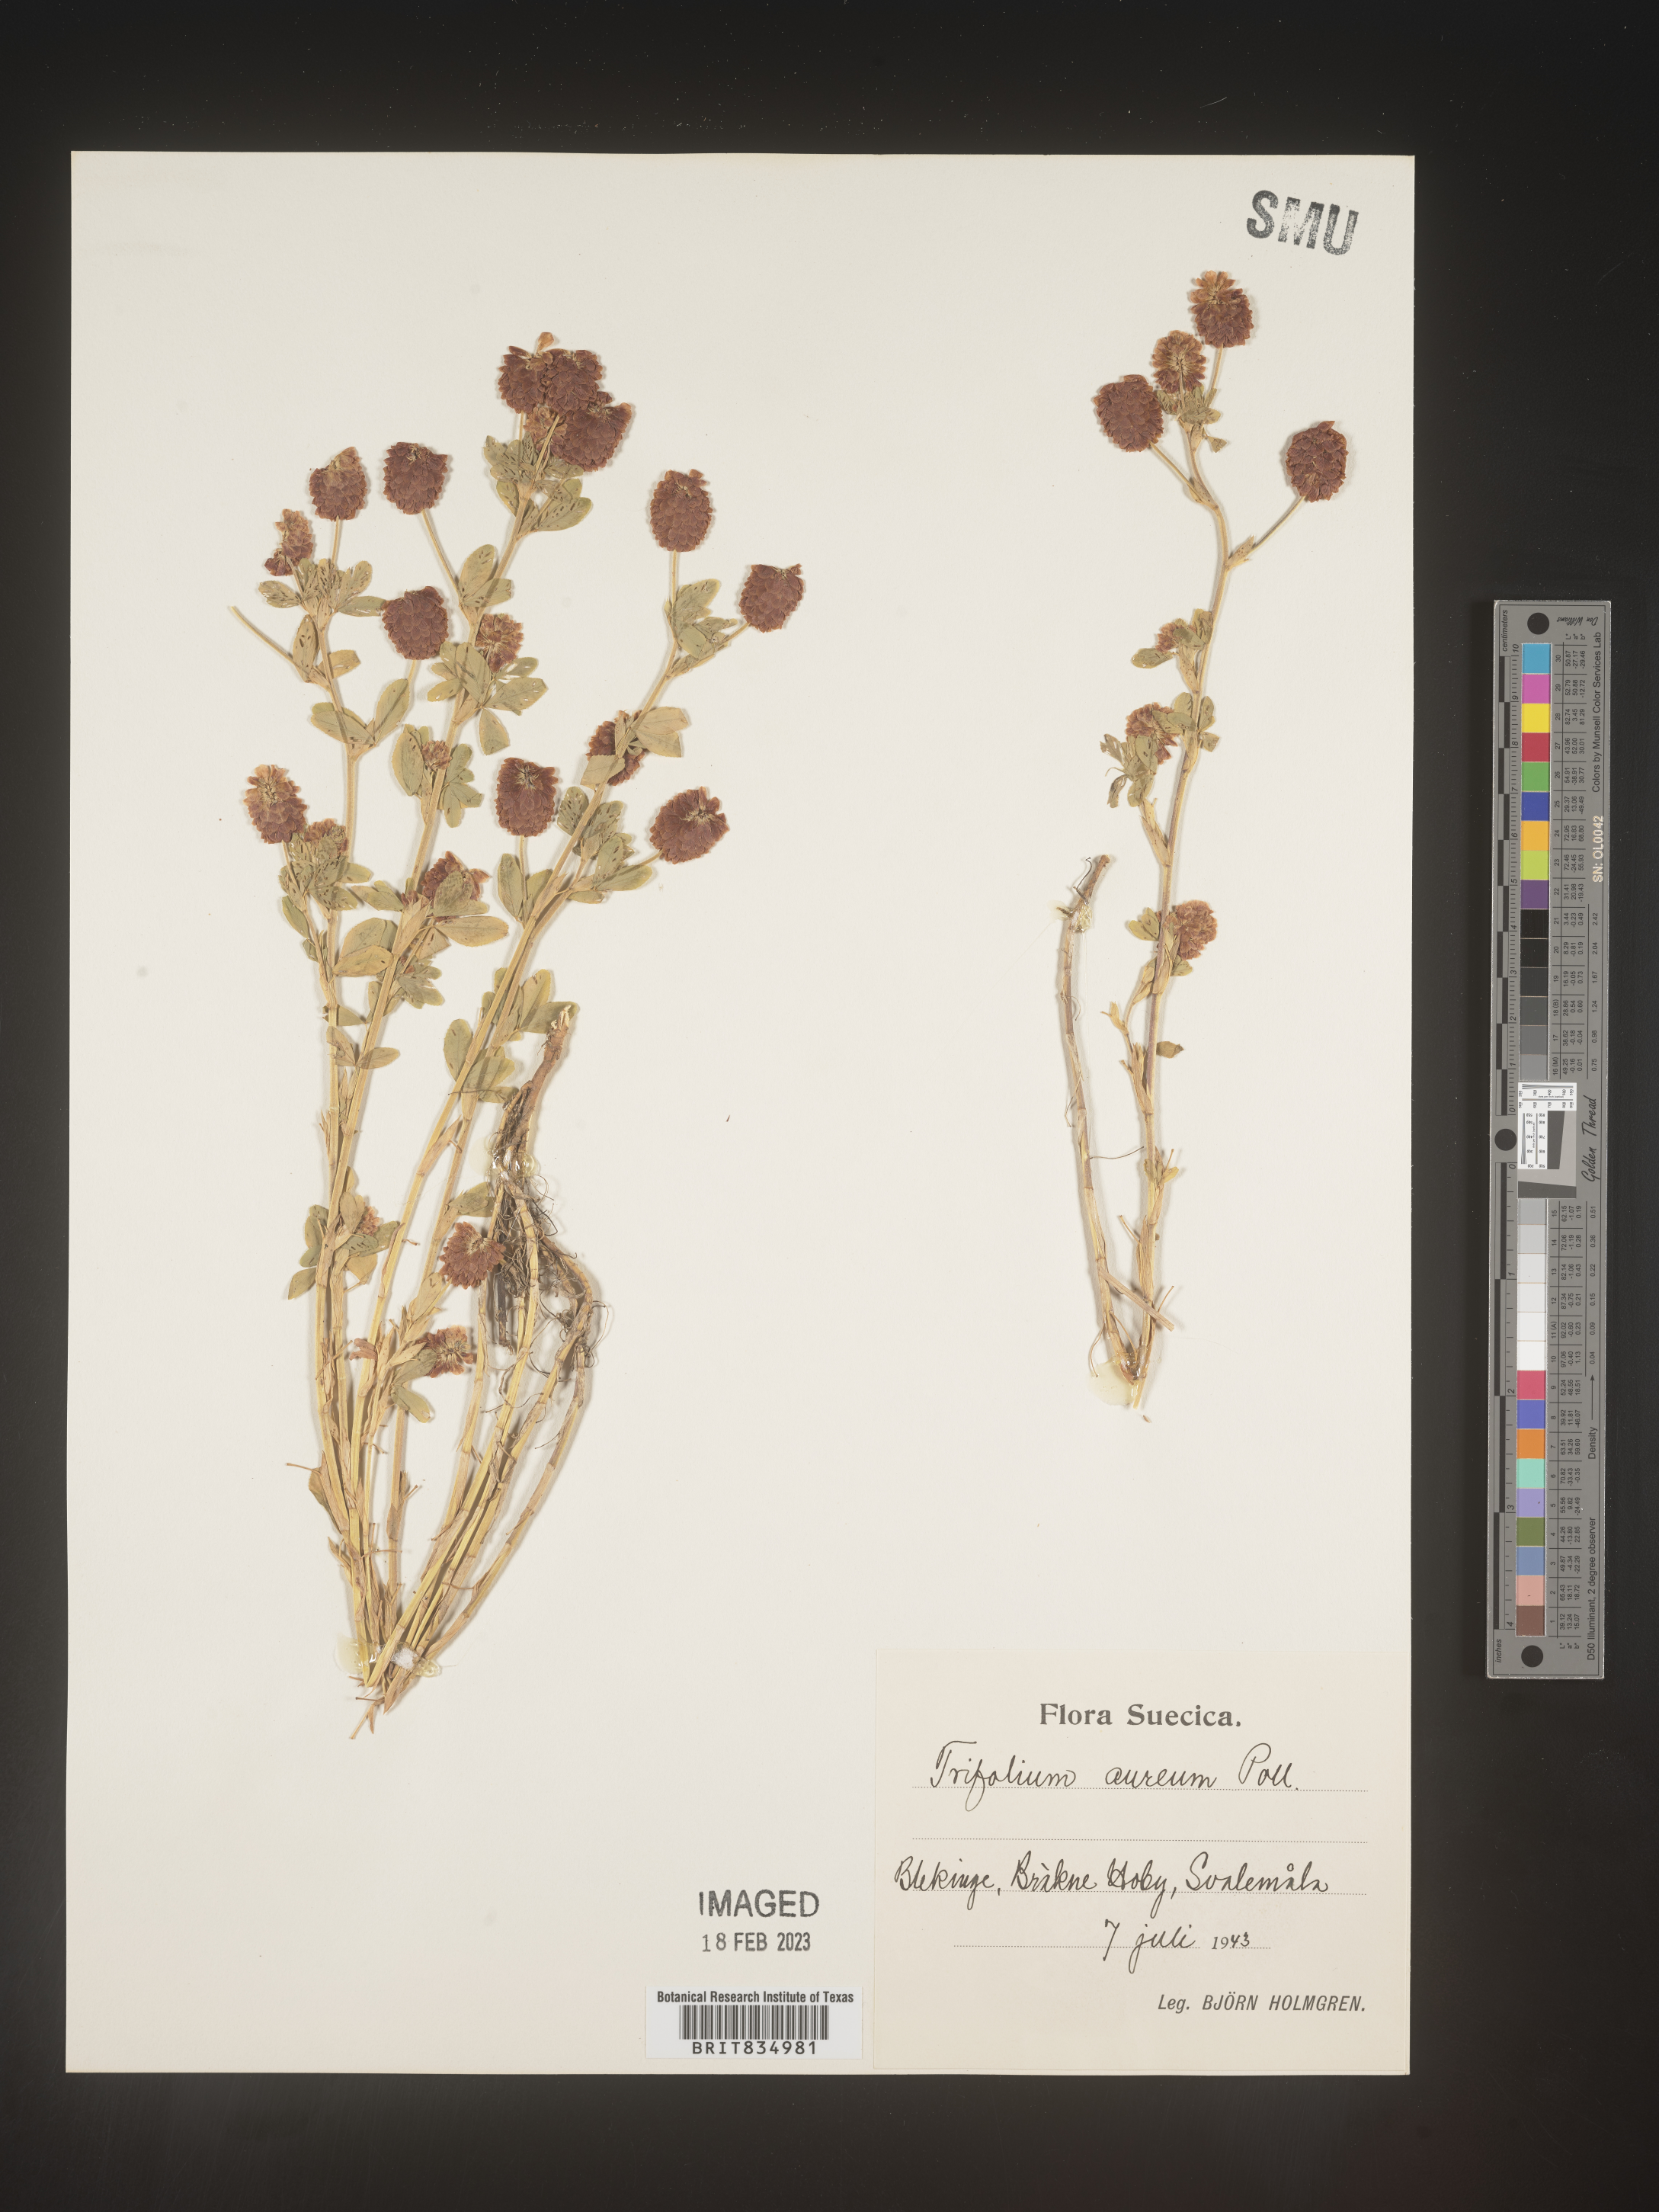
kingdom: Plantae
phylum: Tracheophyta
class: Magnoliopsida
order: Fabales
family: Fabaceae
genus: Trifolium
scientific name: Trifolium
